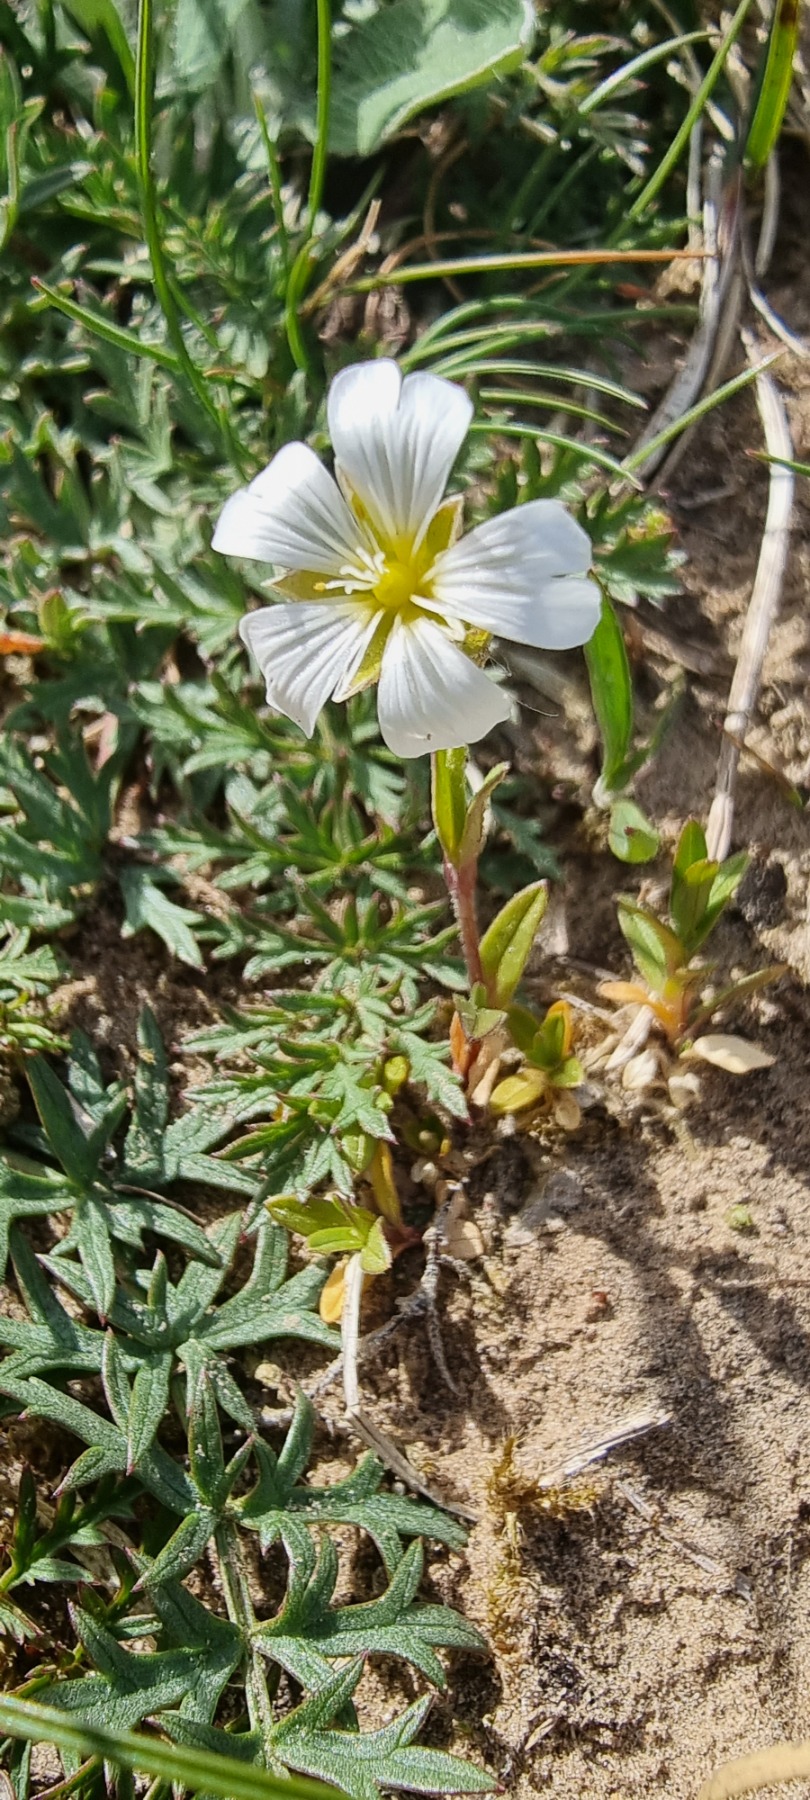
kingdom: Plantae
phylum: Tracheophyta
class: Magnoliopsida
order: Caryophyllales
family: Caryophyllaceae
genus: Cerastium
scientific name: Cerastium arvense
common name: Storblomstret hønsetarm
